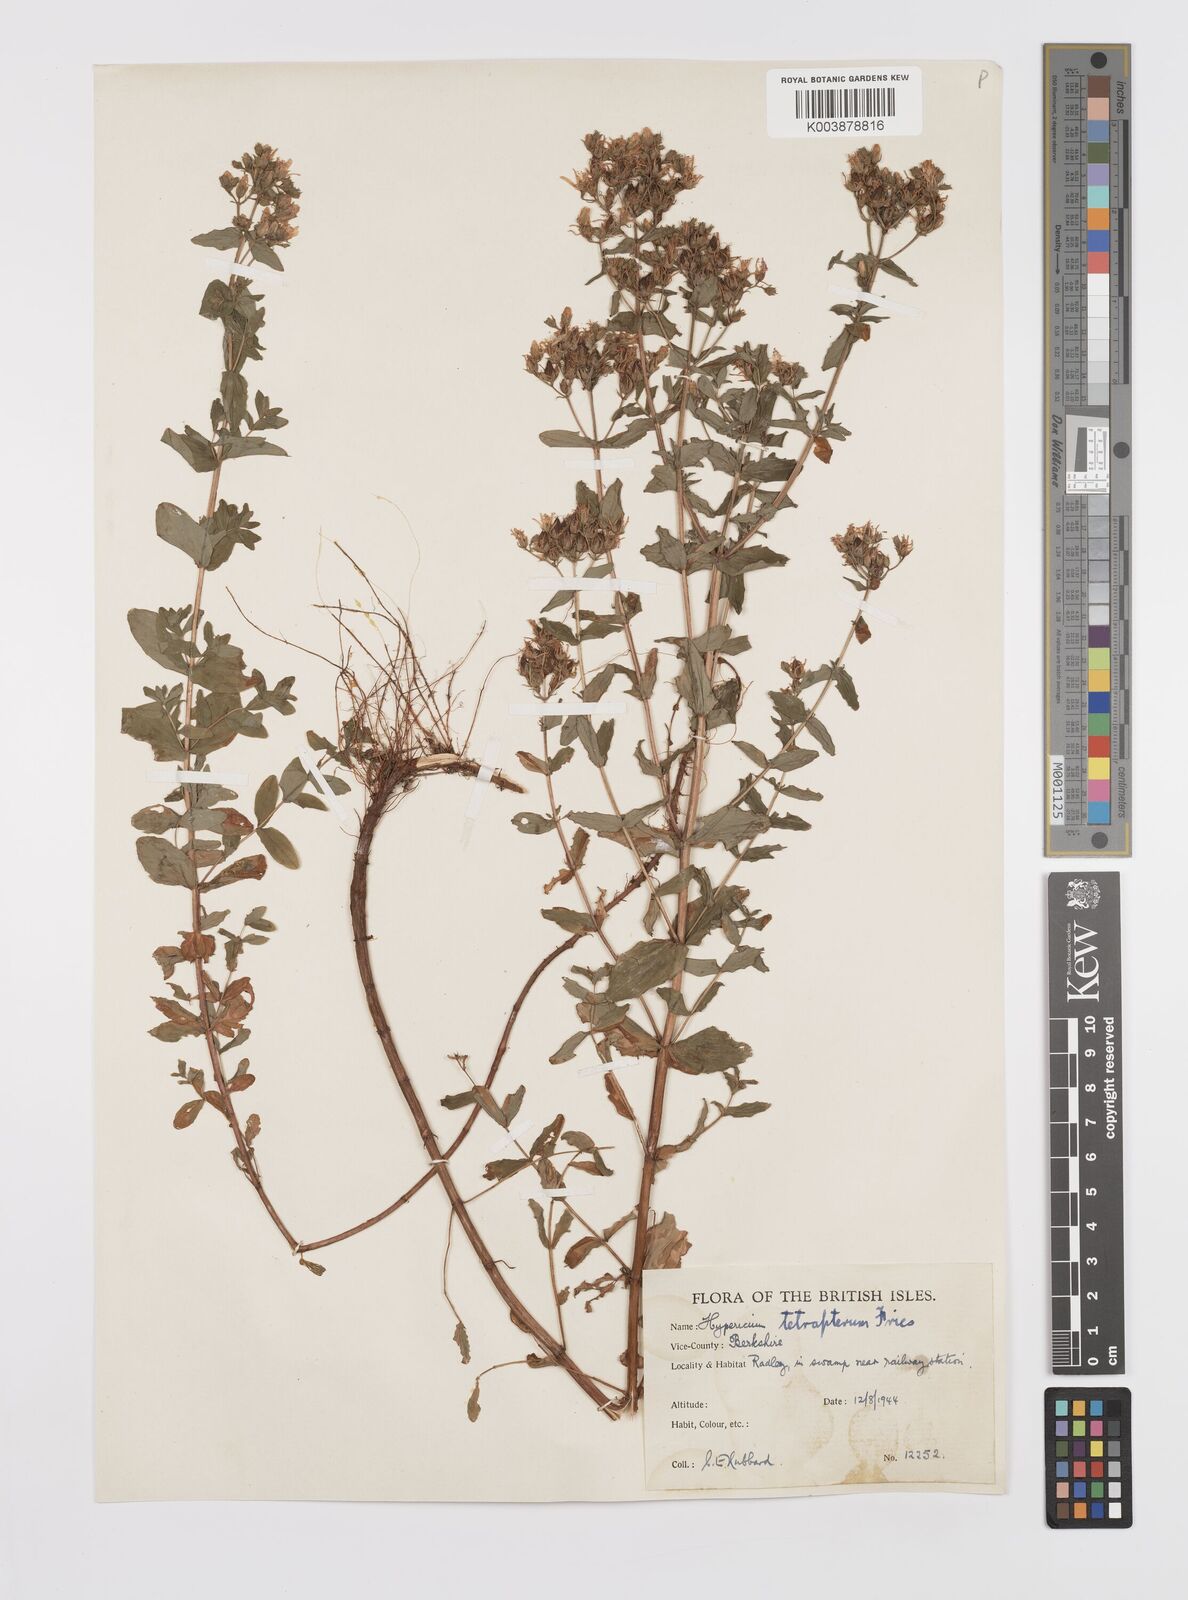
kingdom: Plantae
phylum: Tracheophyta
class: Magnoliopsida
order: Malpighiales
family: Hypericaceae
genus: Hypericum
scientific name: Hypericum tetrapterum
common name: Square-stalked st. john's-wort
